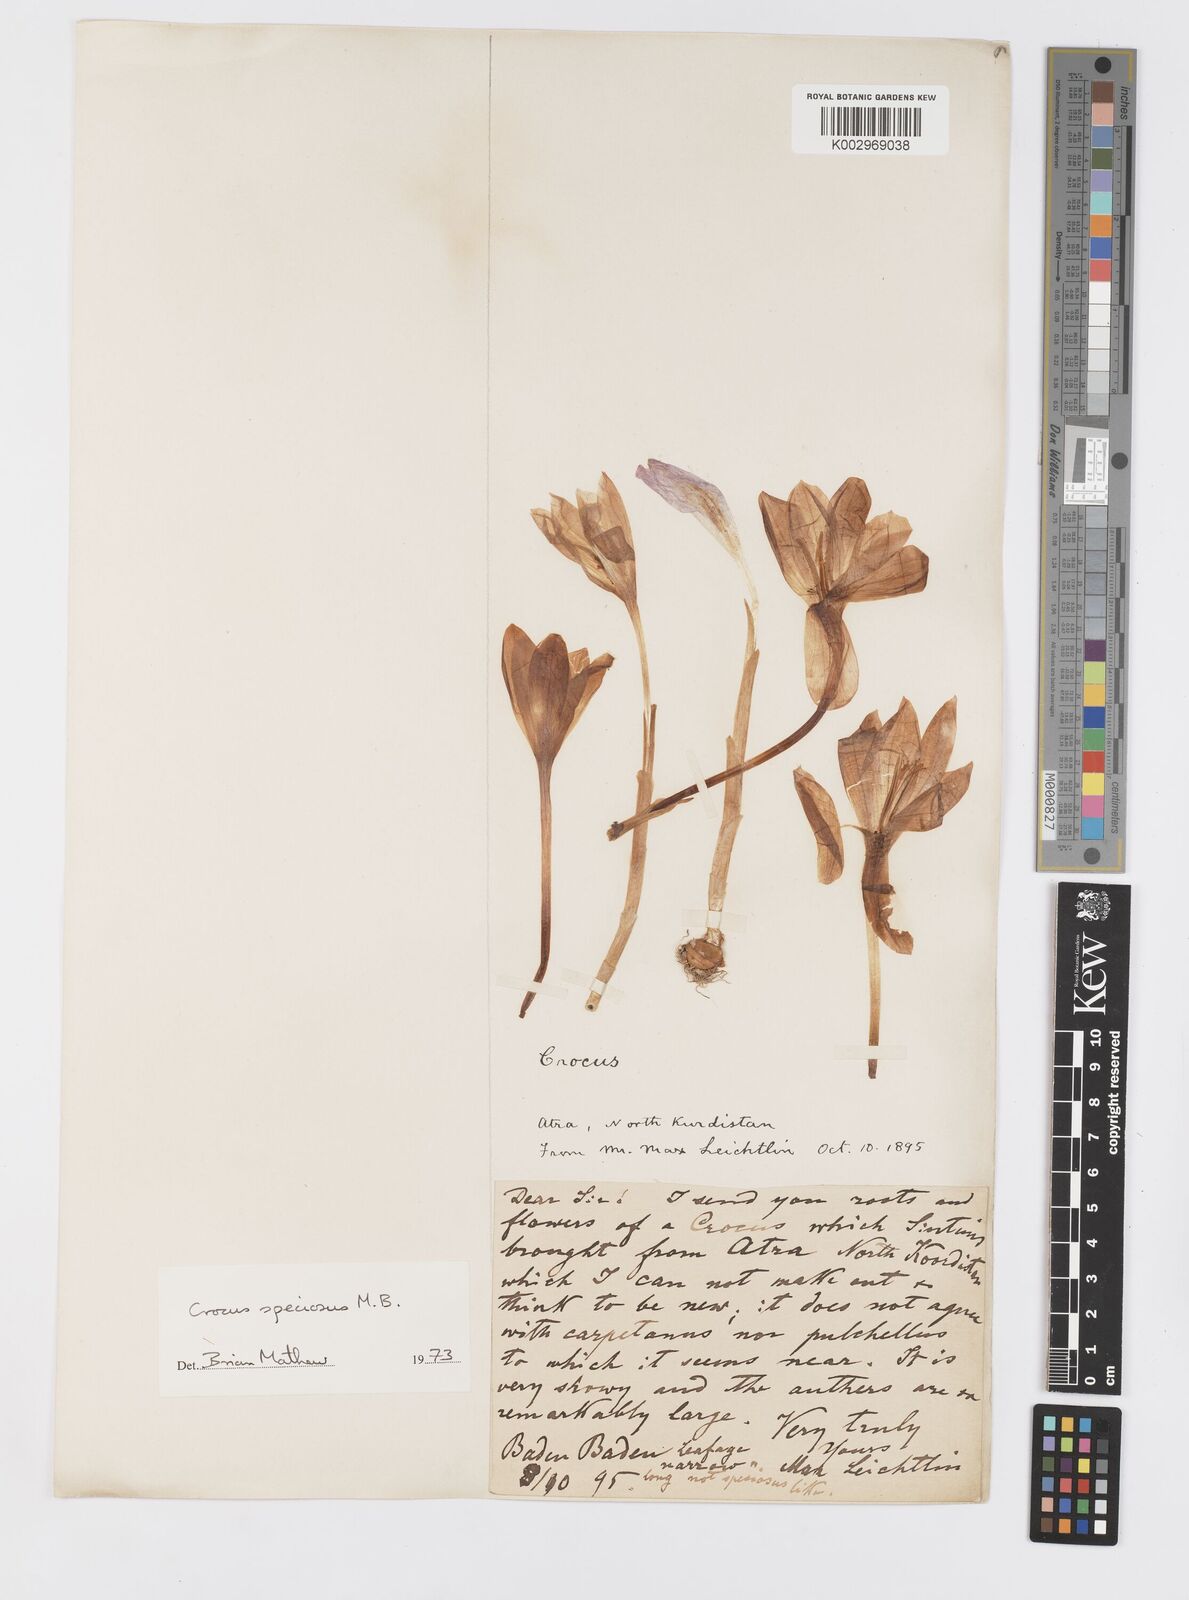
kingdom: Plantae
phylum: Tracheophyta
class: Liliopsida
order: Asparagales
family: Iridaceae
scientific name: Iridaceae
